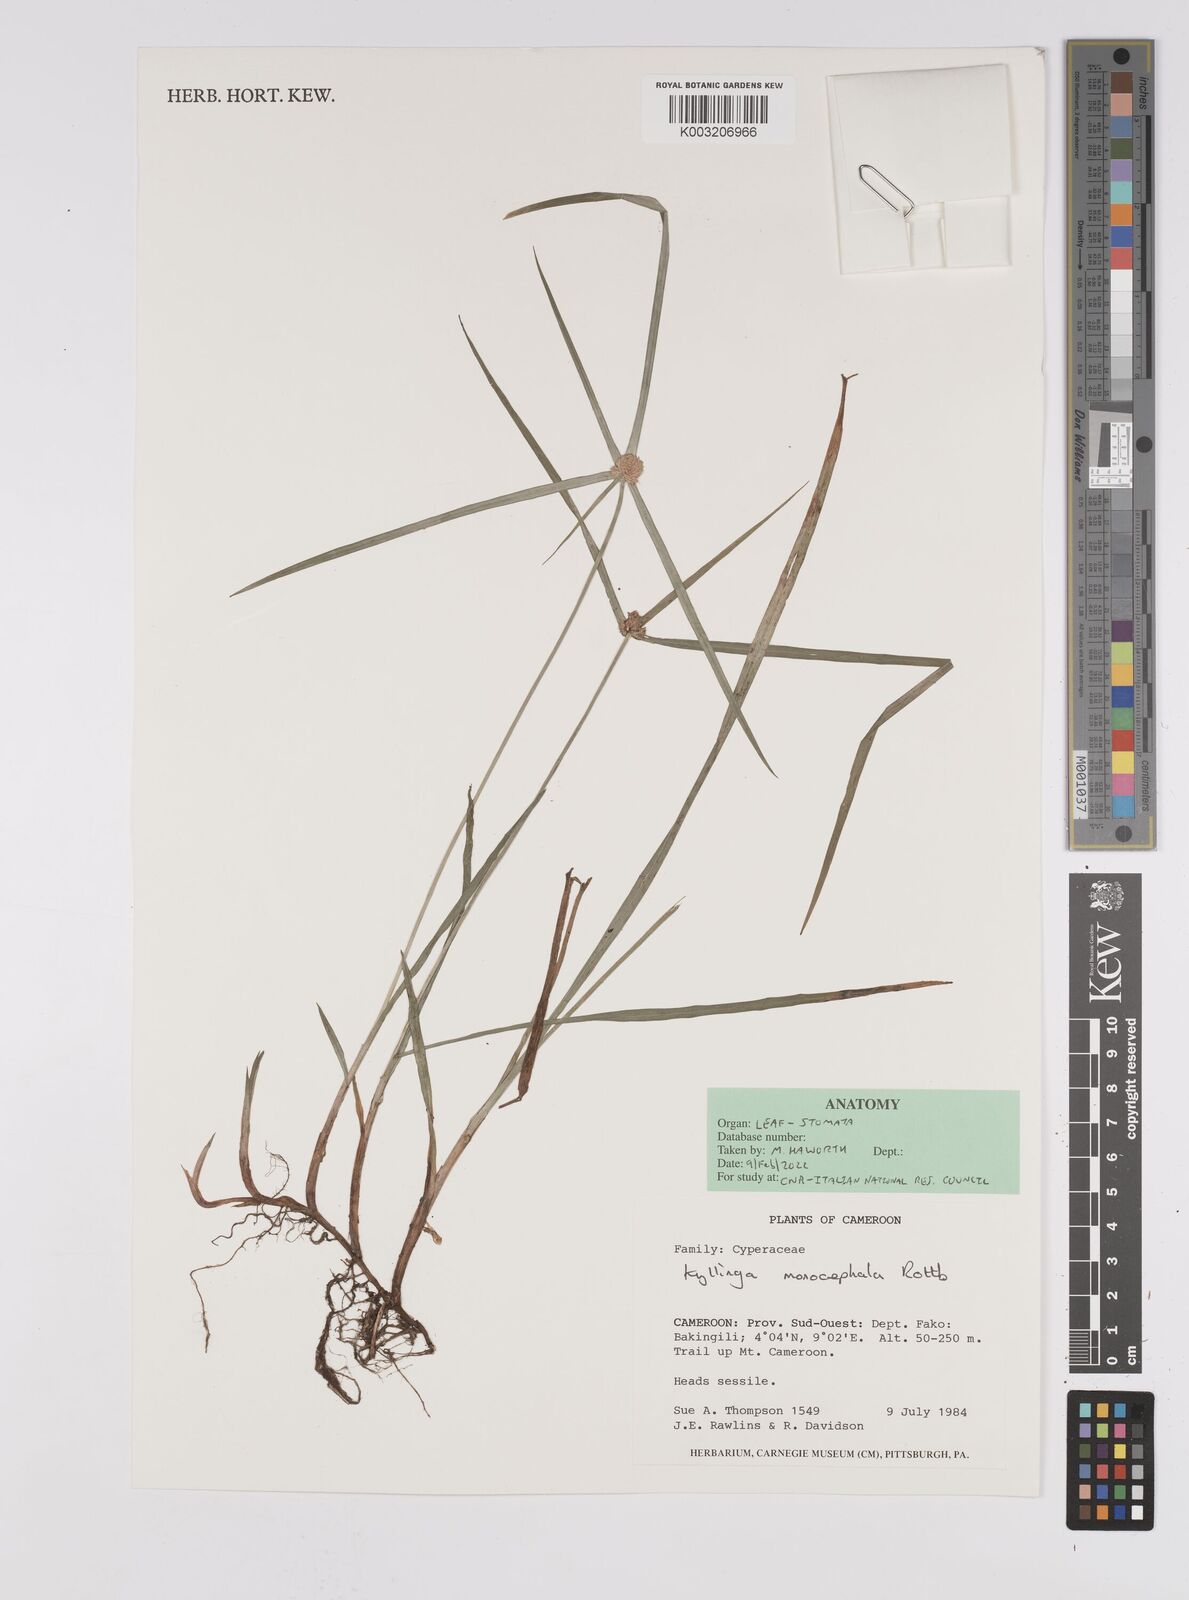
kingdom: Plantae
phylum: Tracheophyta
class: Liliopsida
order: Poales
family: Cyperaceae
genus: Cyperus
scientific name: Cyperus nemoralis
